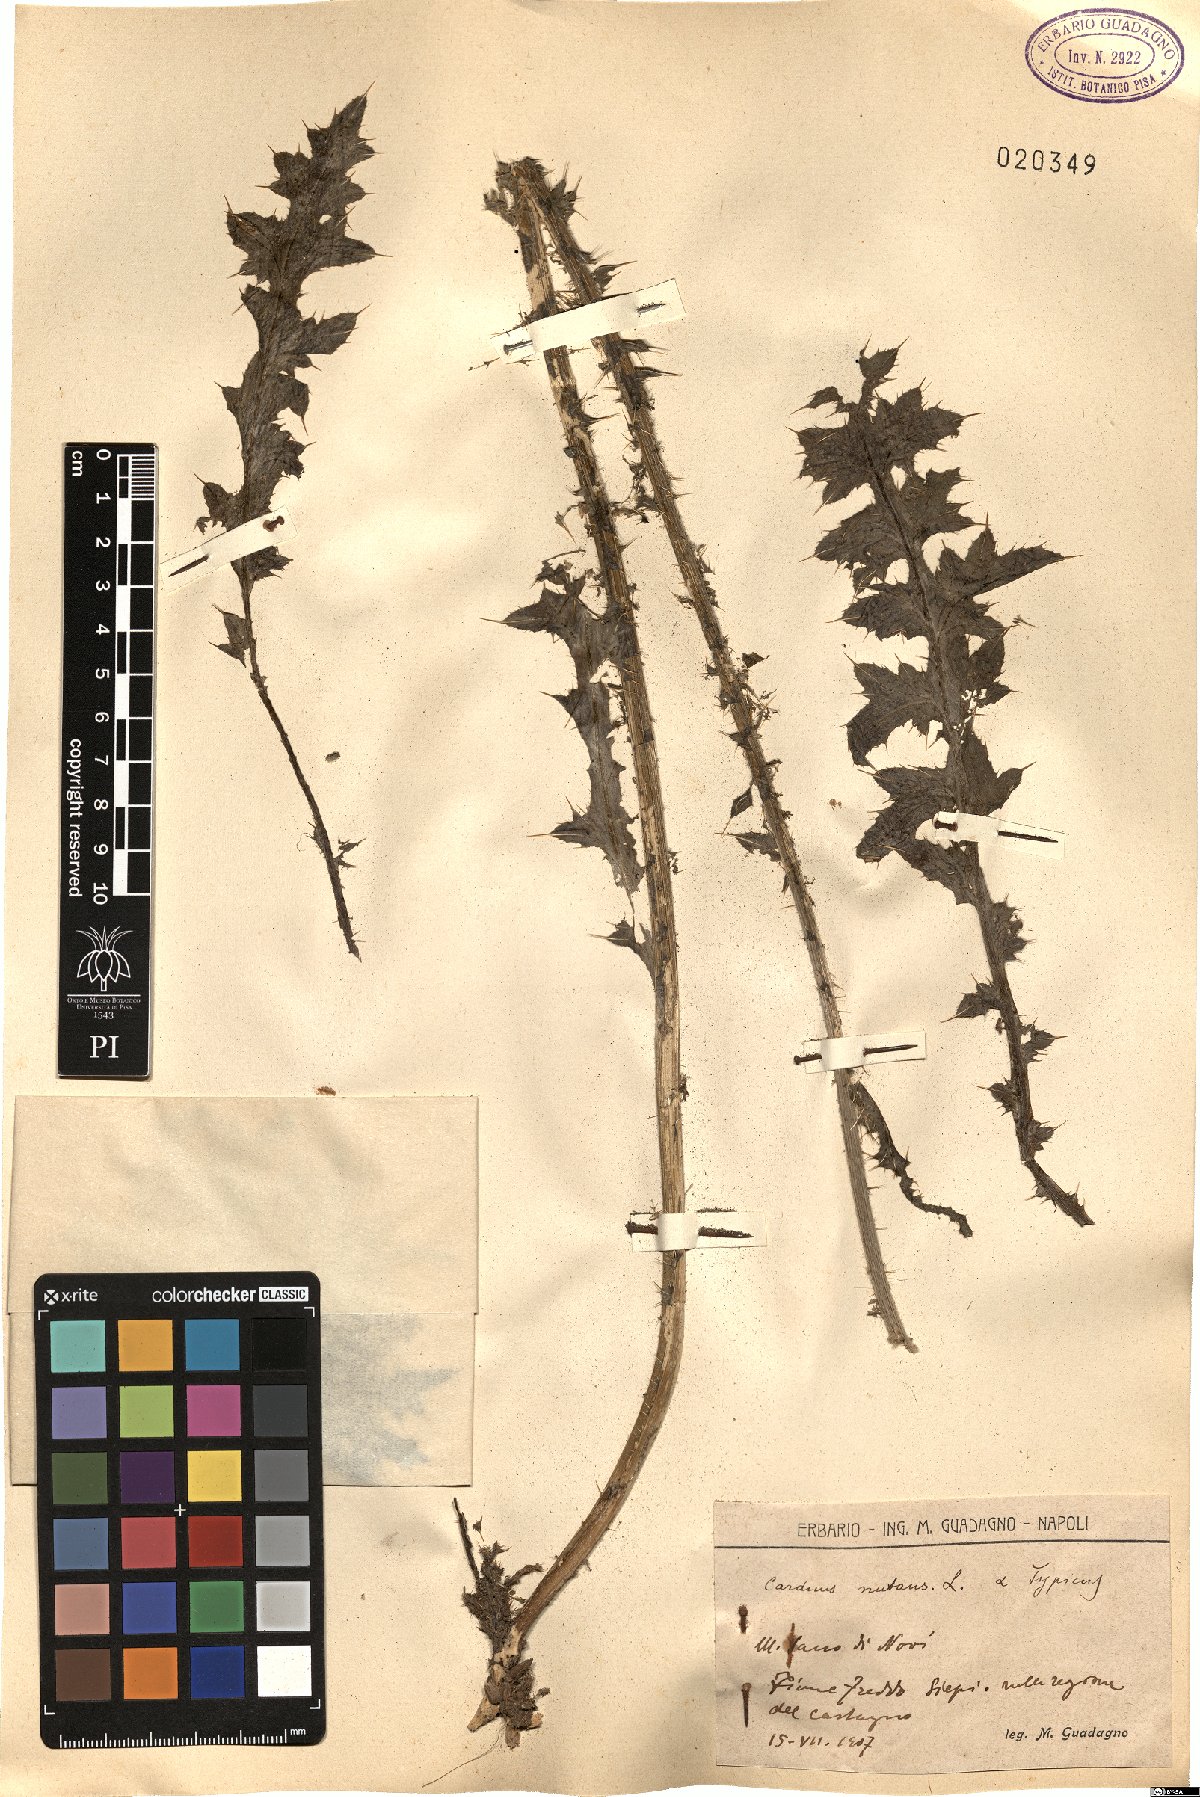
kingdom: Plantae
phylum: Tracheophyta
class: Magnoliopsida
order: Asterales
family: Asteraceae
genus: Carduus
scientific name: Carduus nutans
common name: Musk thistle
